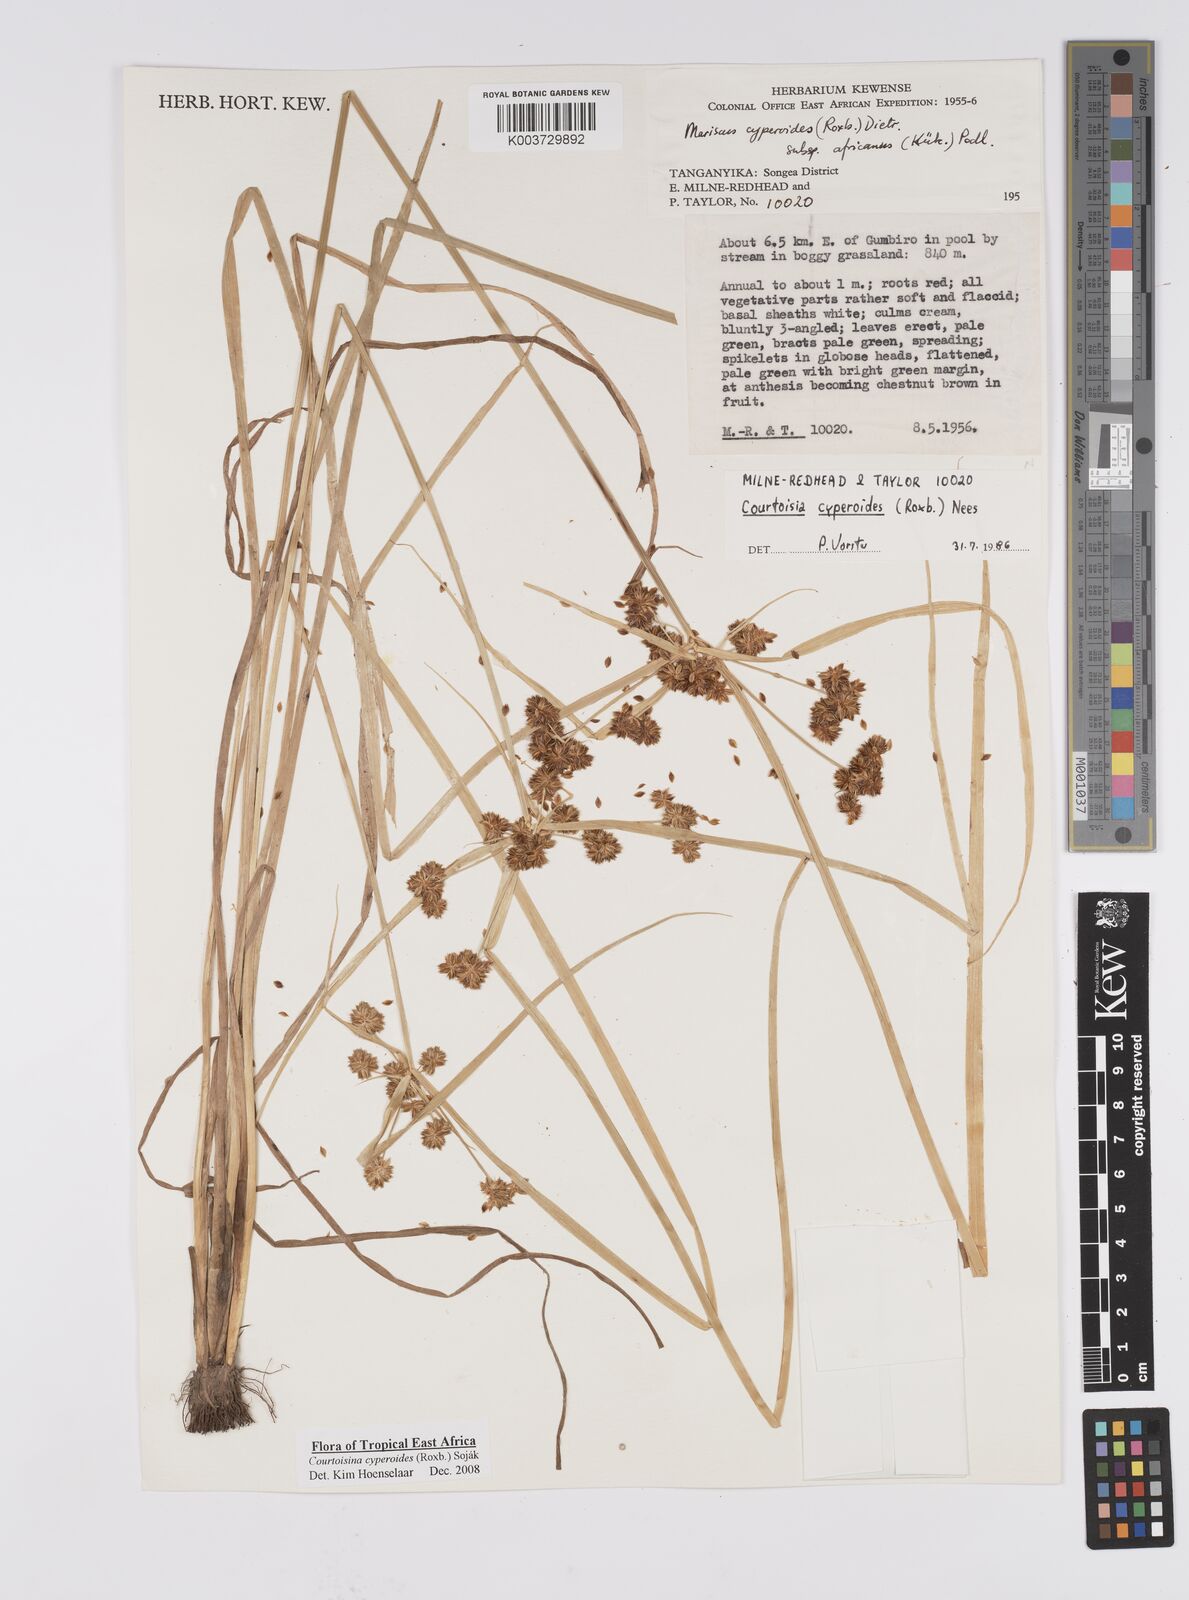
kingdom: Plantae
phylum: Tracheophyta
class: Liliopsida
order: Poales
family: Cyperaceae
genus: Cyperus
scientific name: Cyperus cyperoides
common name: Pacific island flat sedge
